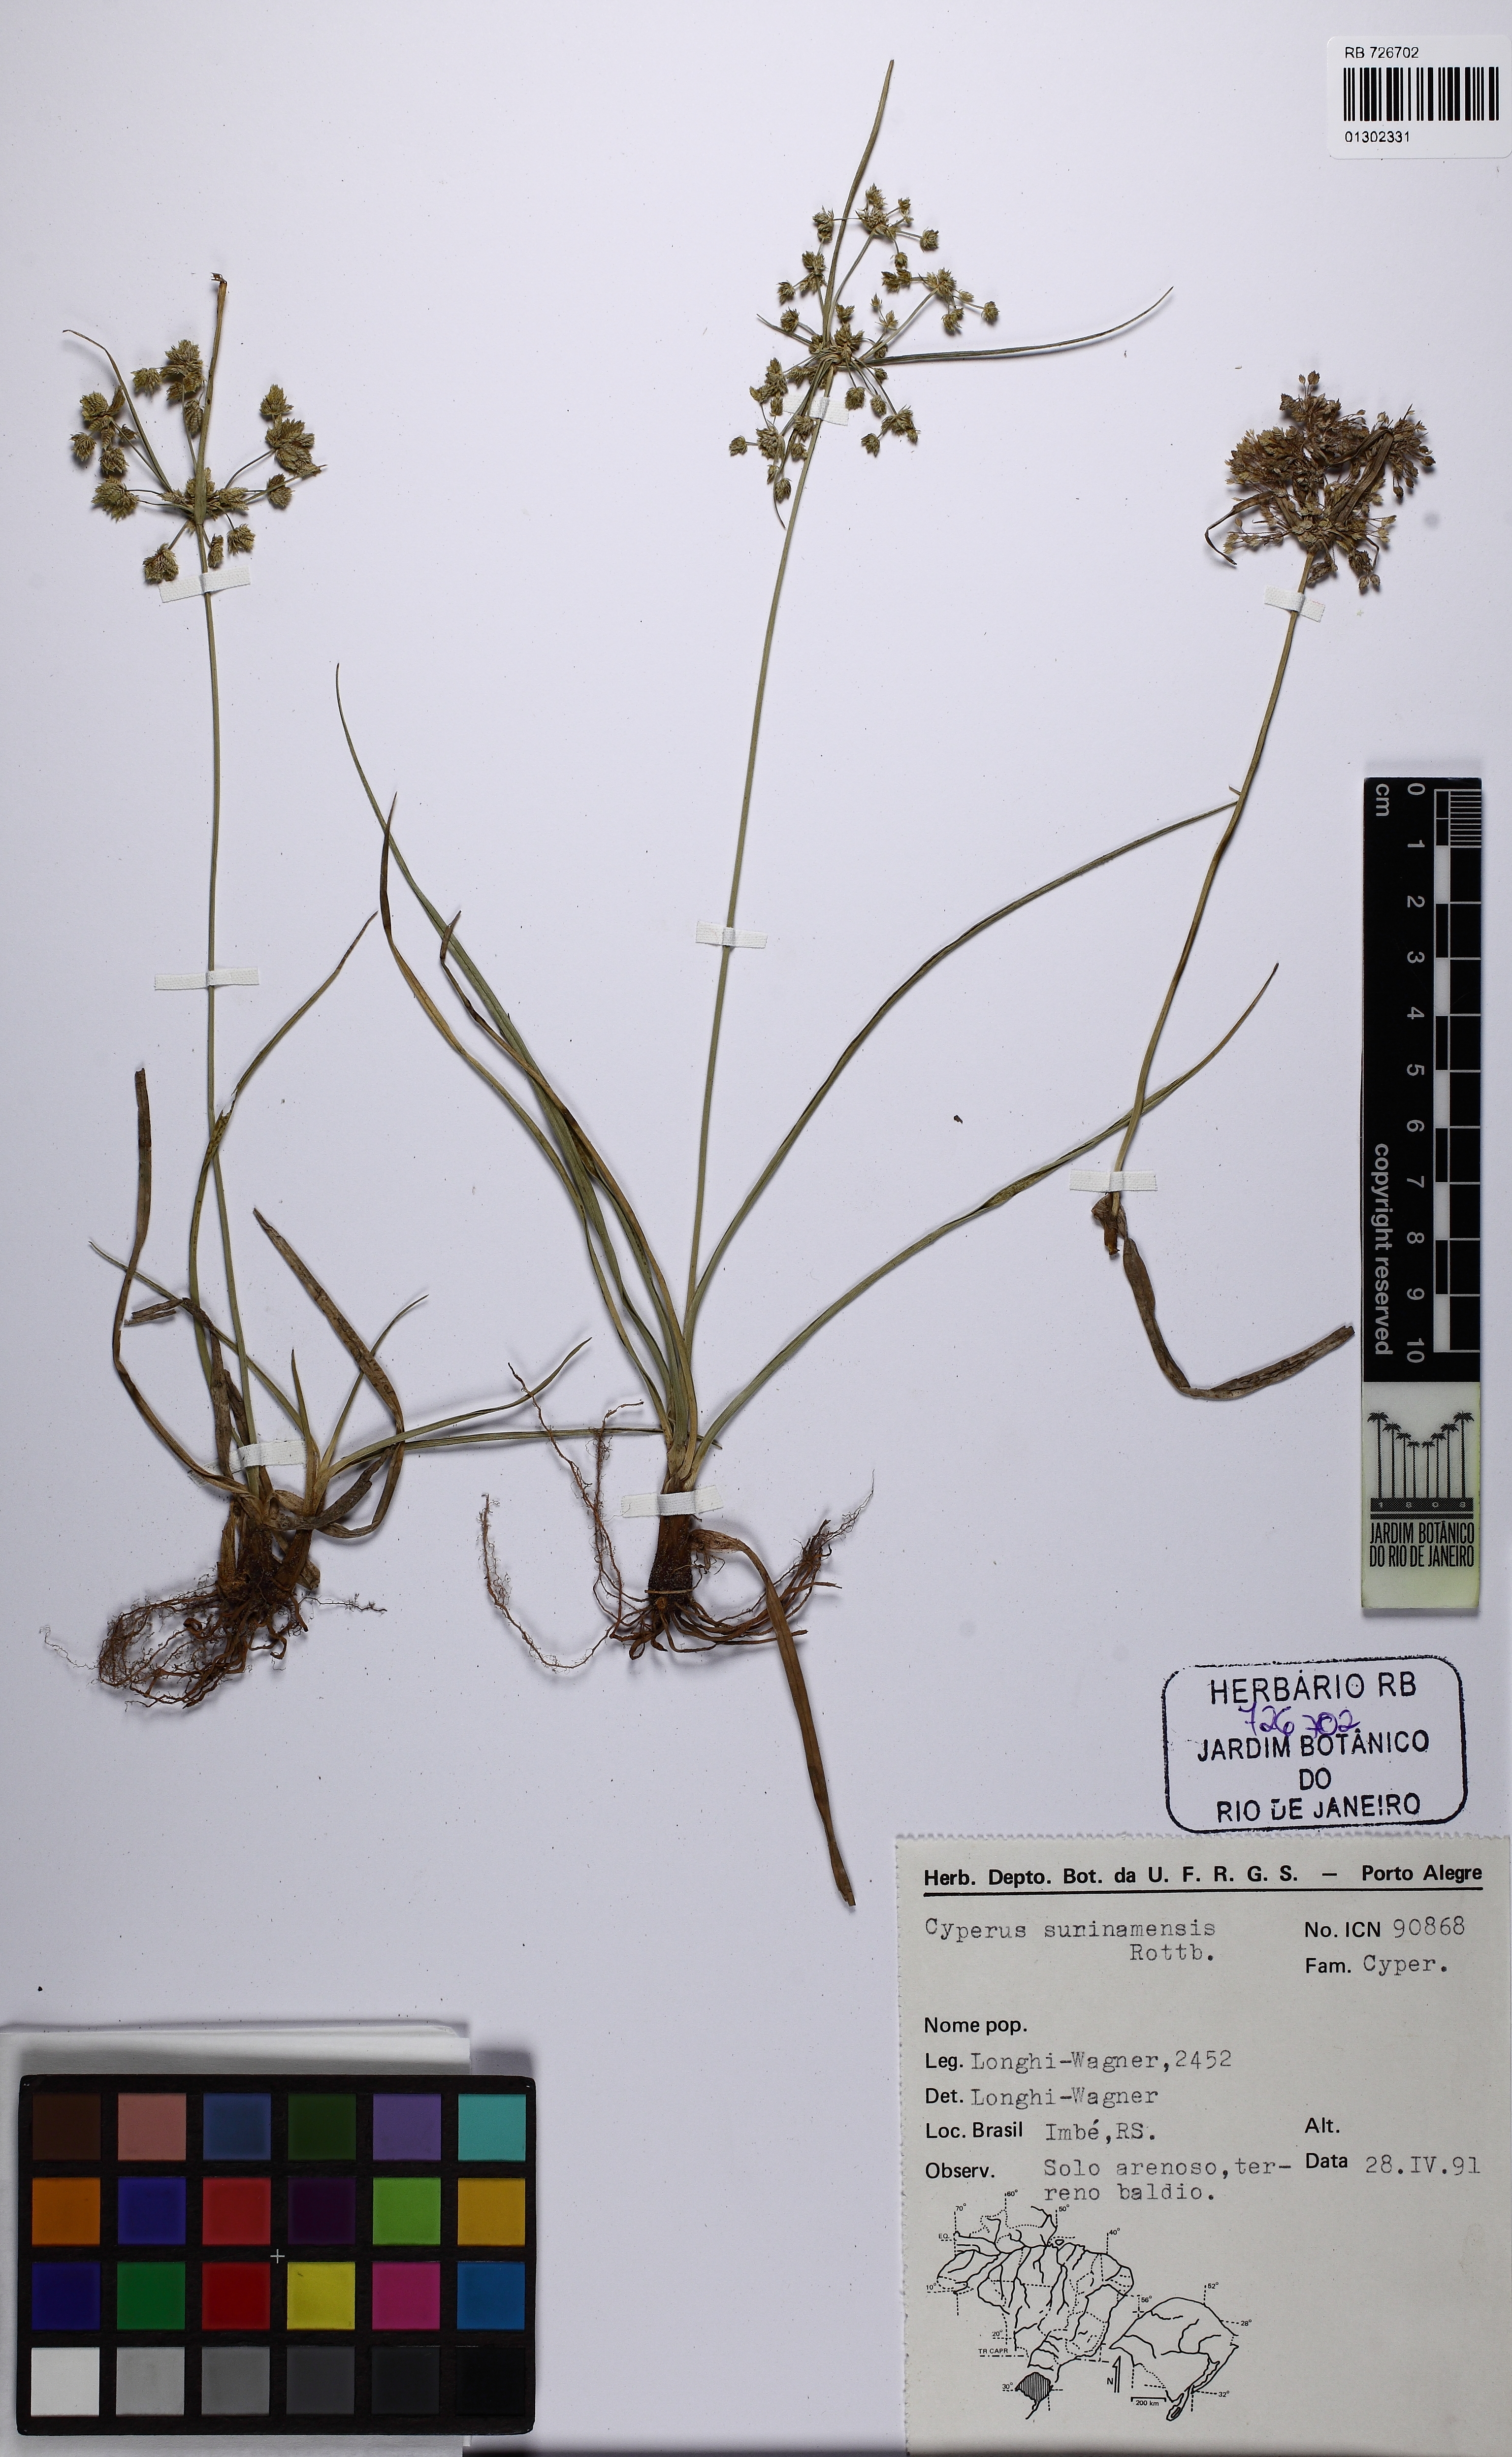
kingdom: Plantae
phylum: Tracheophyta
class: Liliopsida
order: Poales
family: Cyperaceae
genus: Cyperus
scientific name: Cyperus surinamensis
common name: Tropical flat sedge
